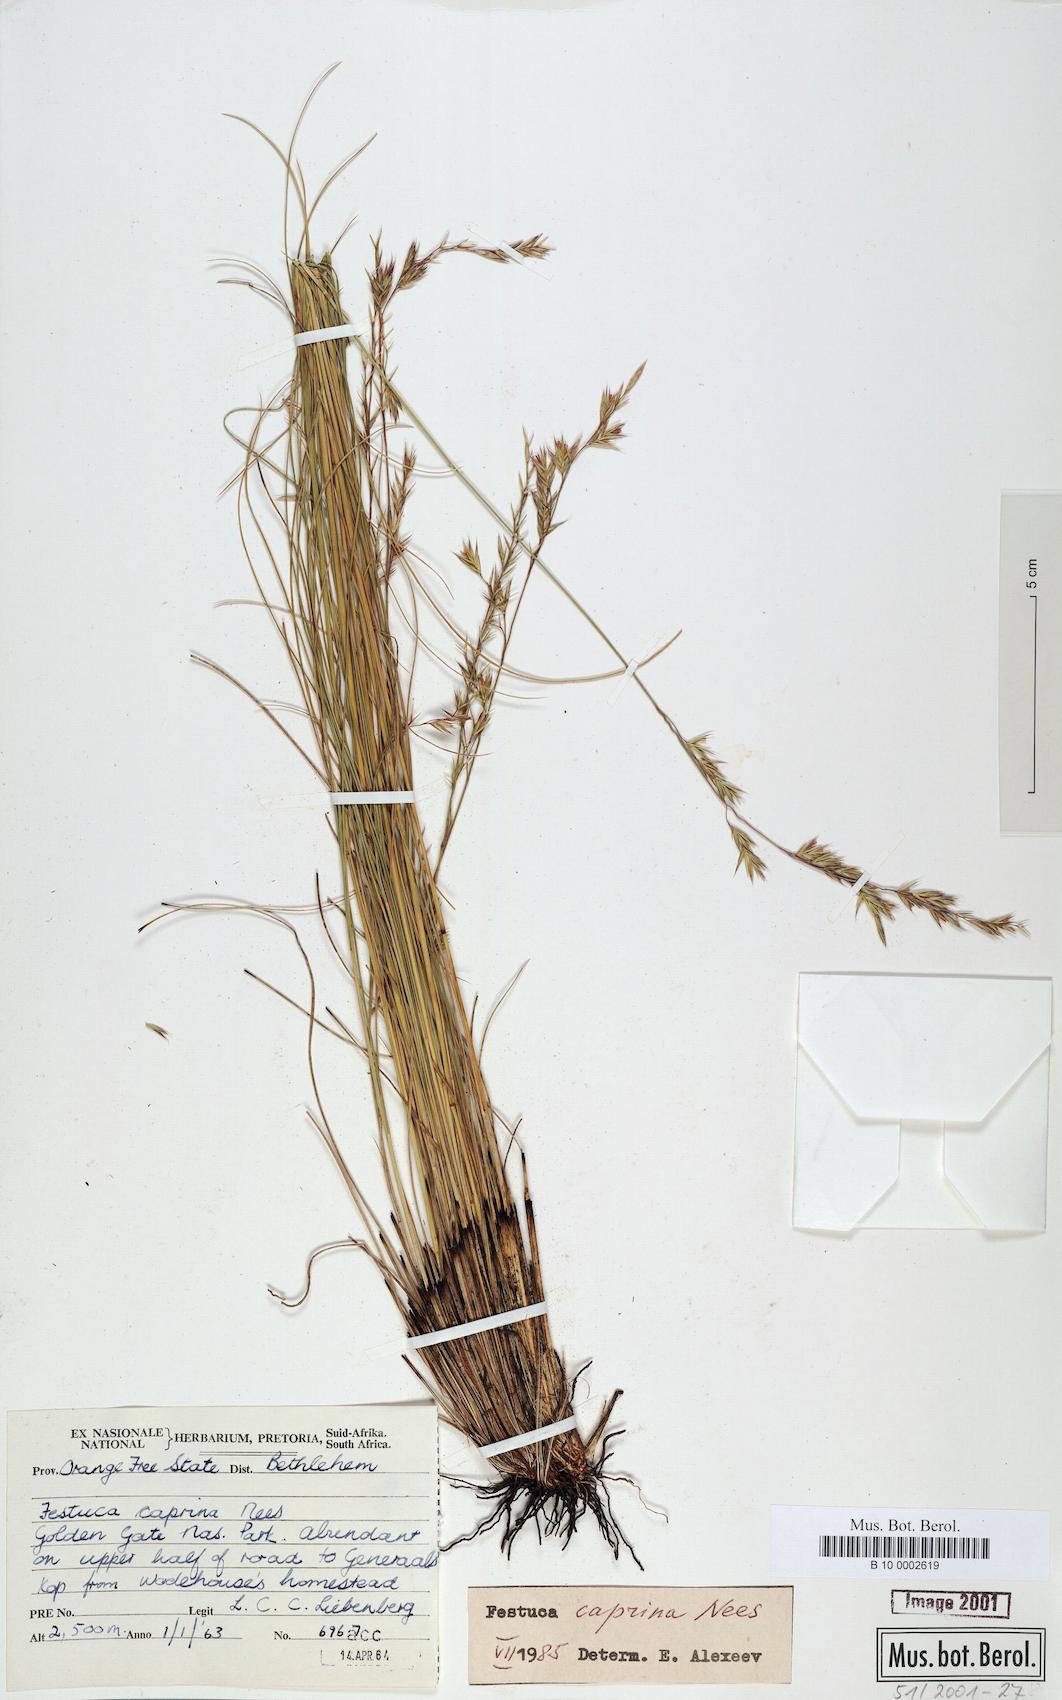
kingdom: Plantae
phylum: Tracheophyta
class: Liliopsida
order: Poales
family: Poaceae
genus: Festuca
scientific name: Festuca caprina
